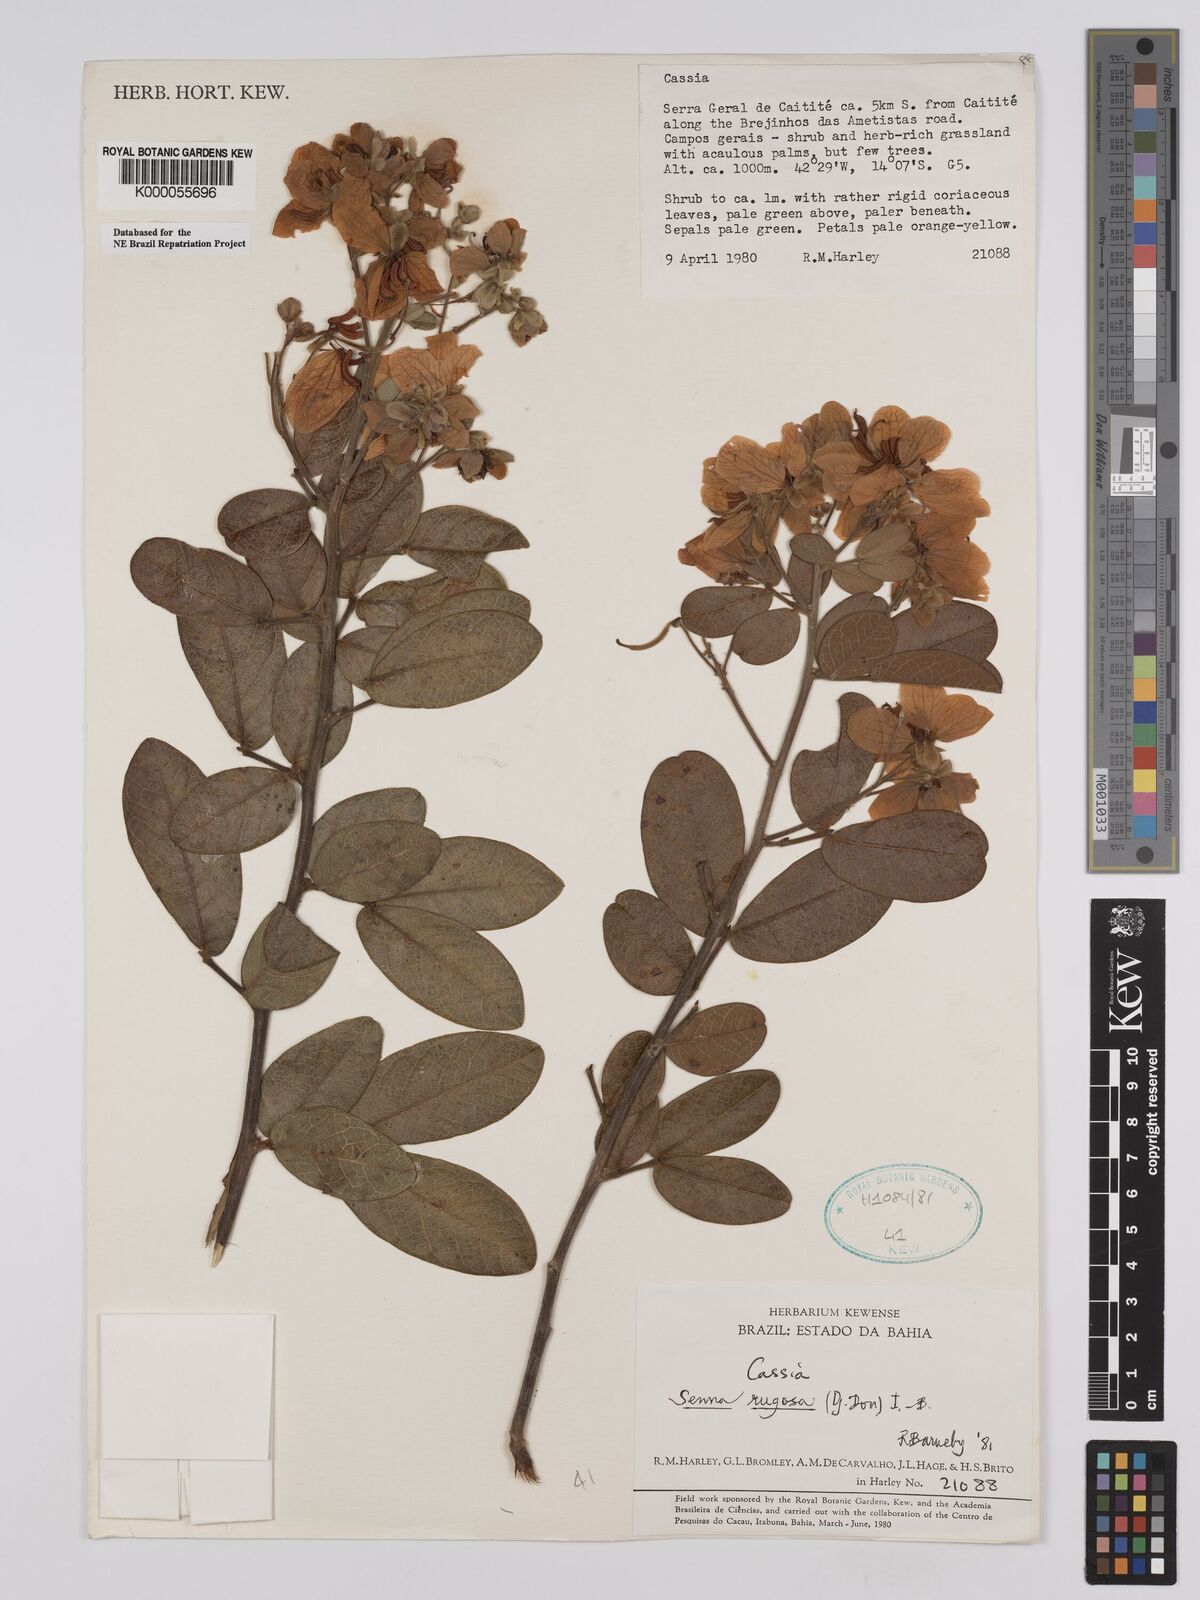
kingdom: Plantae
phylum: Tracheophyta
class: Magnoliopsida
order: Fabales
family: Fabaceae
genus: Senna
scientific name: Senna rugosa
